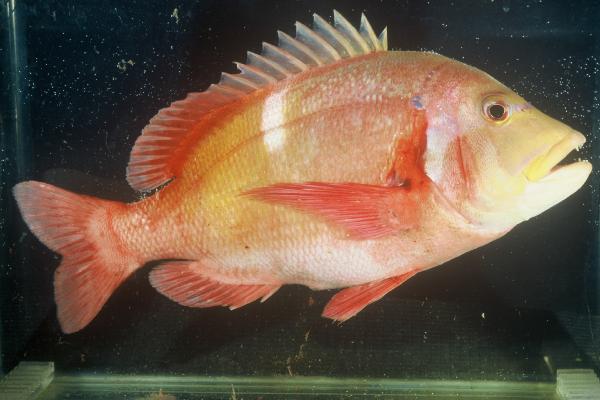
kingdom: Animalia
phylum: Chordata
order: Perciformes
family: Sparidae
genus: Chrysoblephus
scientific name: Chrysoblephus laticeps
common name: Roman seabream
